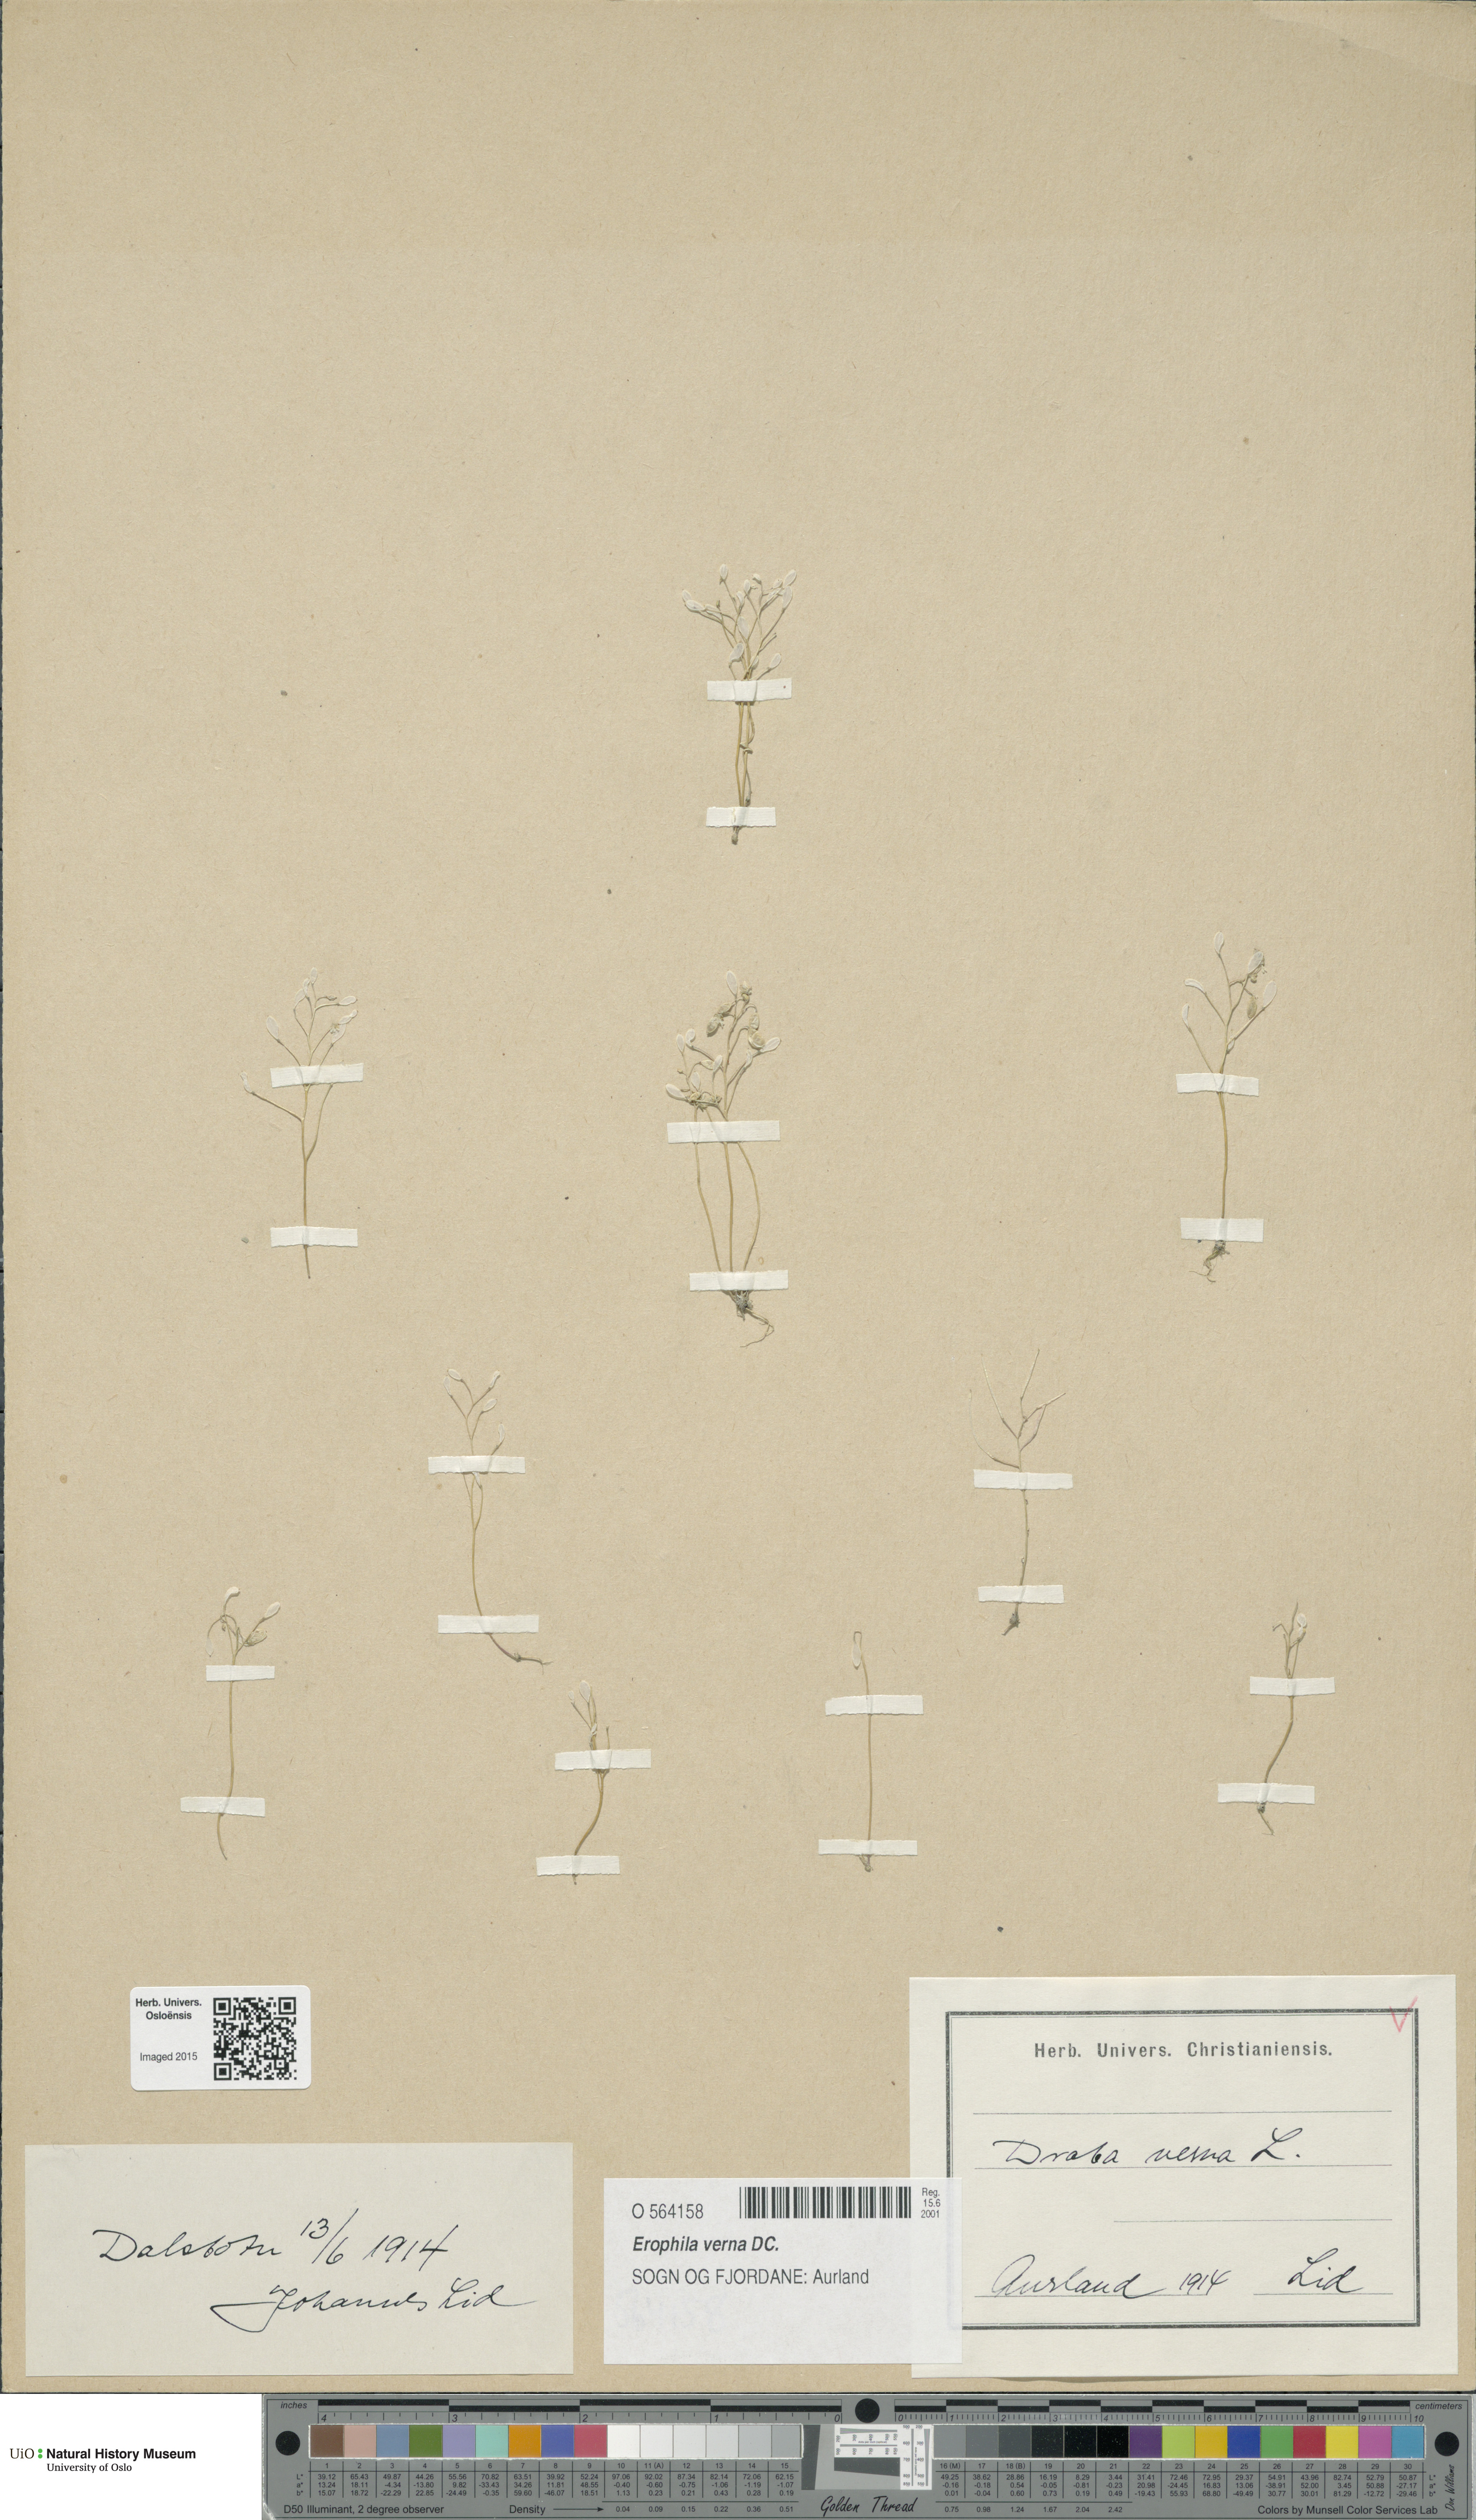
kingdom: Plantae
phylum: Tracheophyta
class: Magnoliopsida
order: Brassicales
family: Brassicaceae
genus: Draba
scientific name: Draba verna
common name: Spring draba
